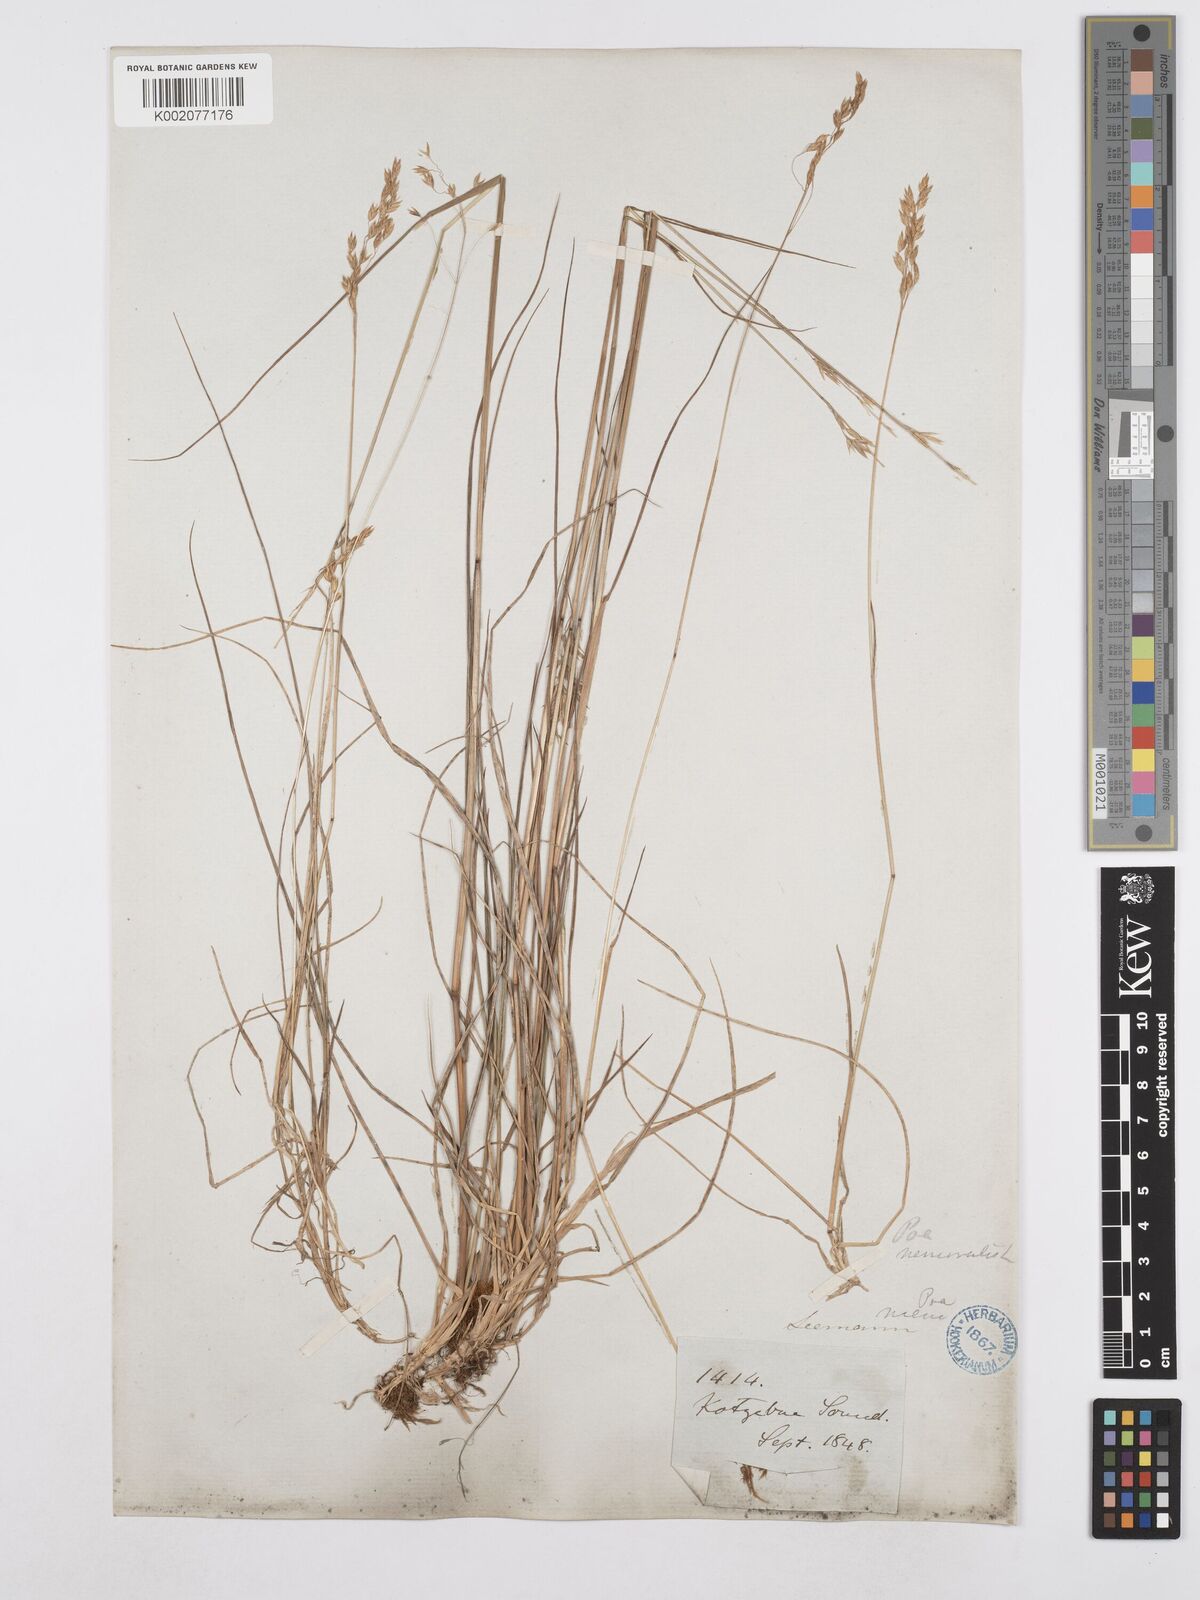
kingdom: Plantae
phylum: Tracheophyta
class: Liliopsida
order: Poales
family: Poaceae
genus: Poa
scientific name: Poa nemoralis
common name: Wood bluegrass
